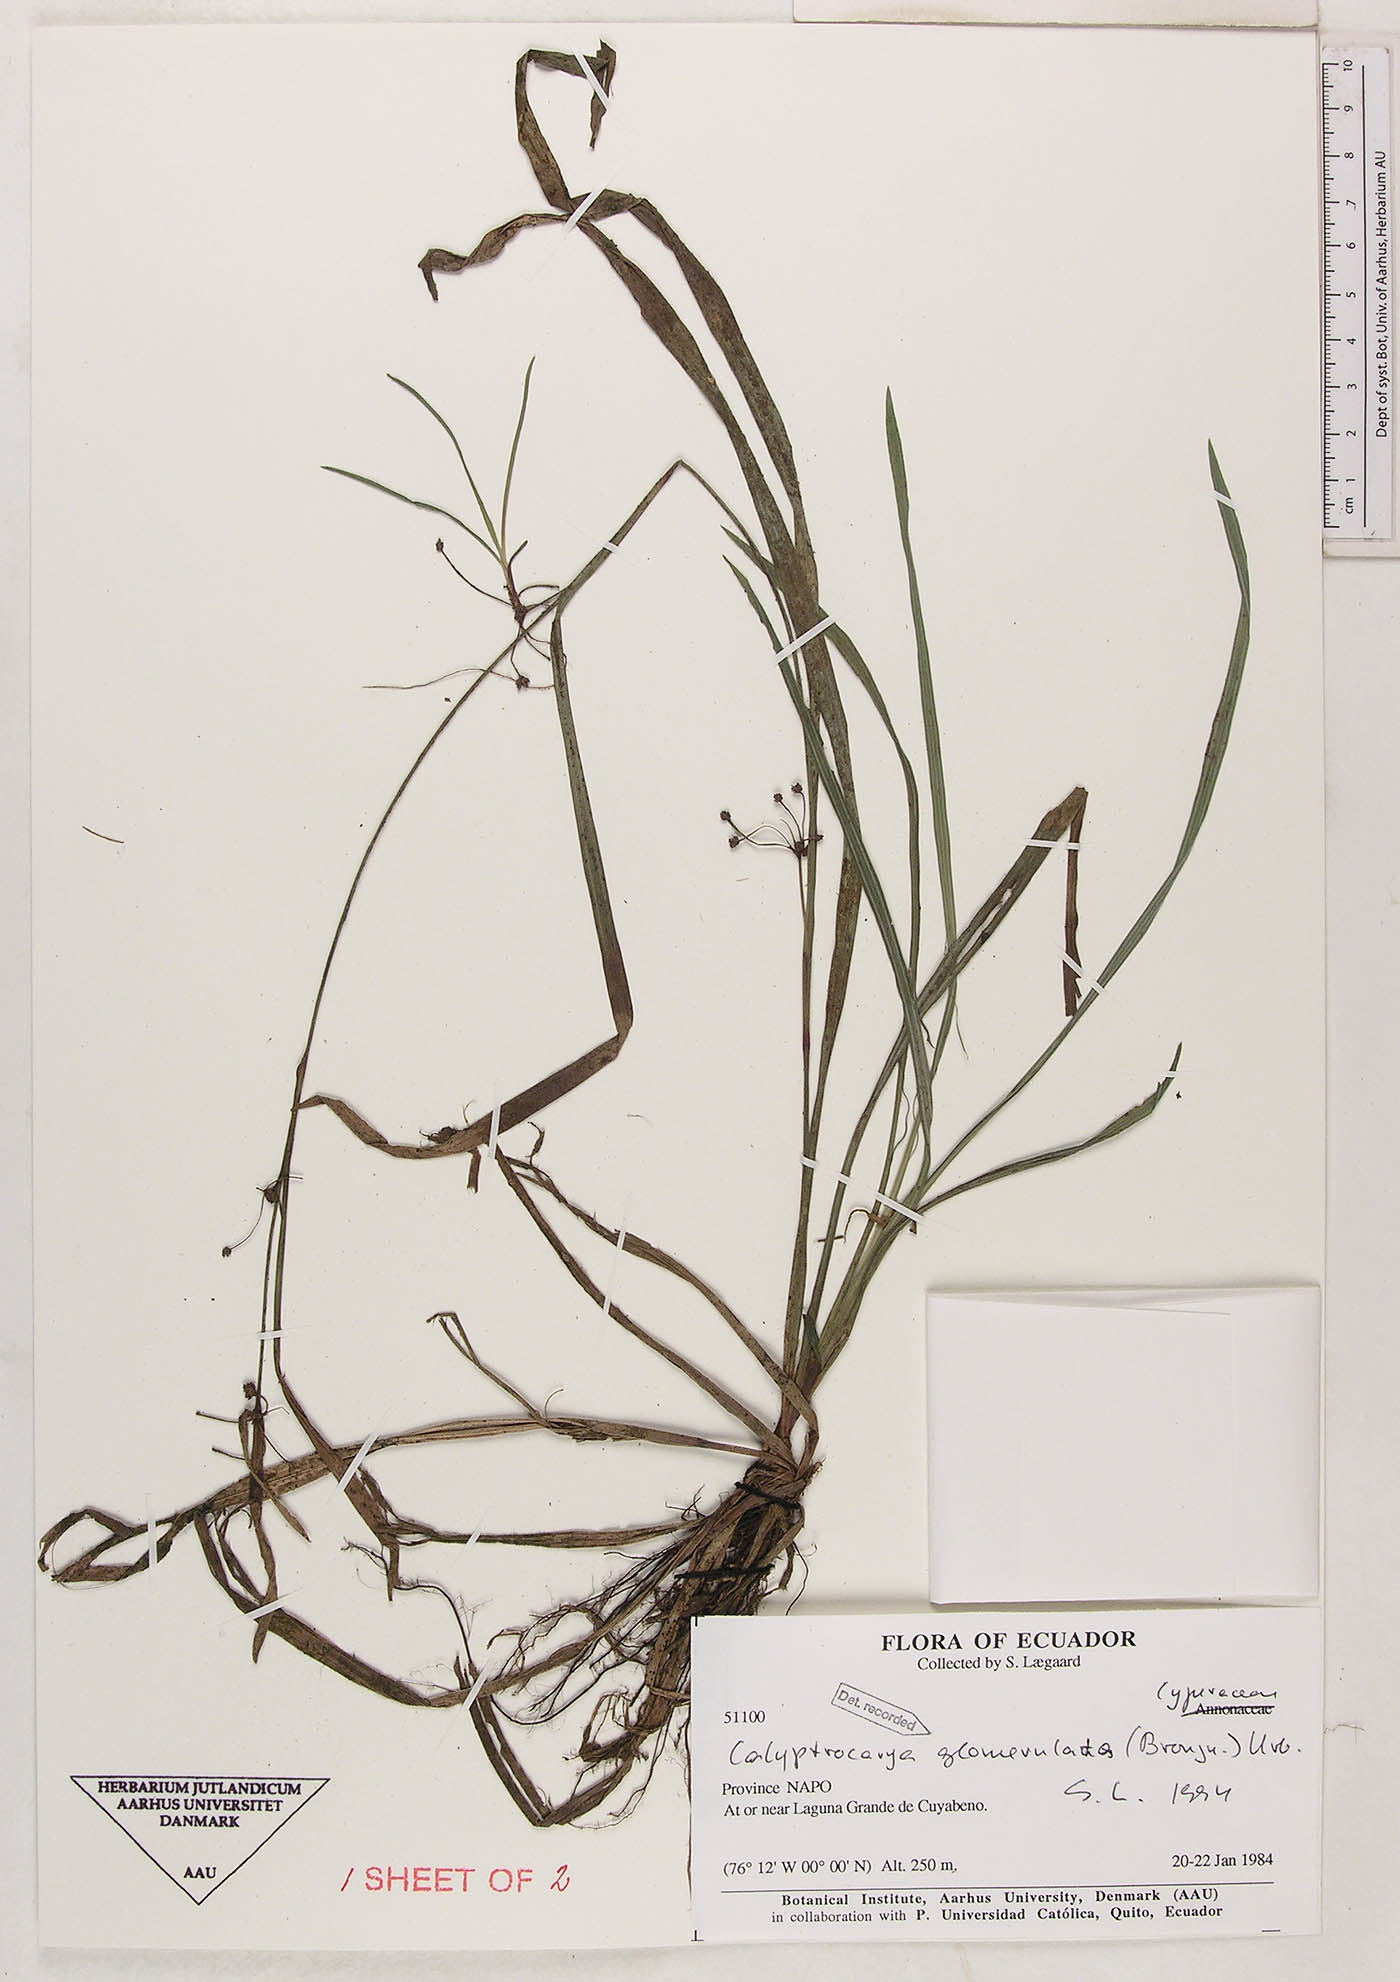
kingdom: Plantae
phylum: Tracheophyta
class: Liliopsida
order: Poales
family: Cyperaceae
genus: Calyptrocarya
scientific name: Calyptrocarya glomerulata
